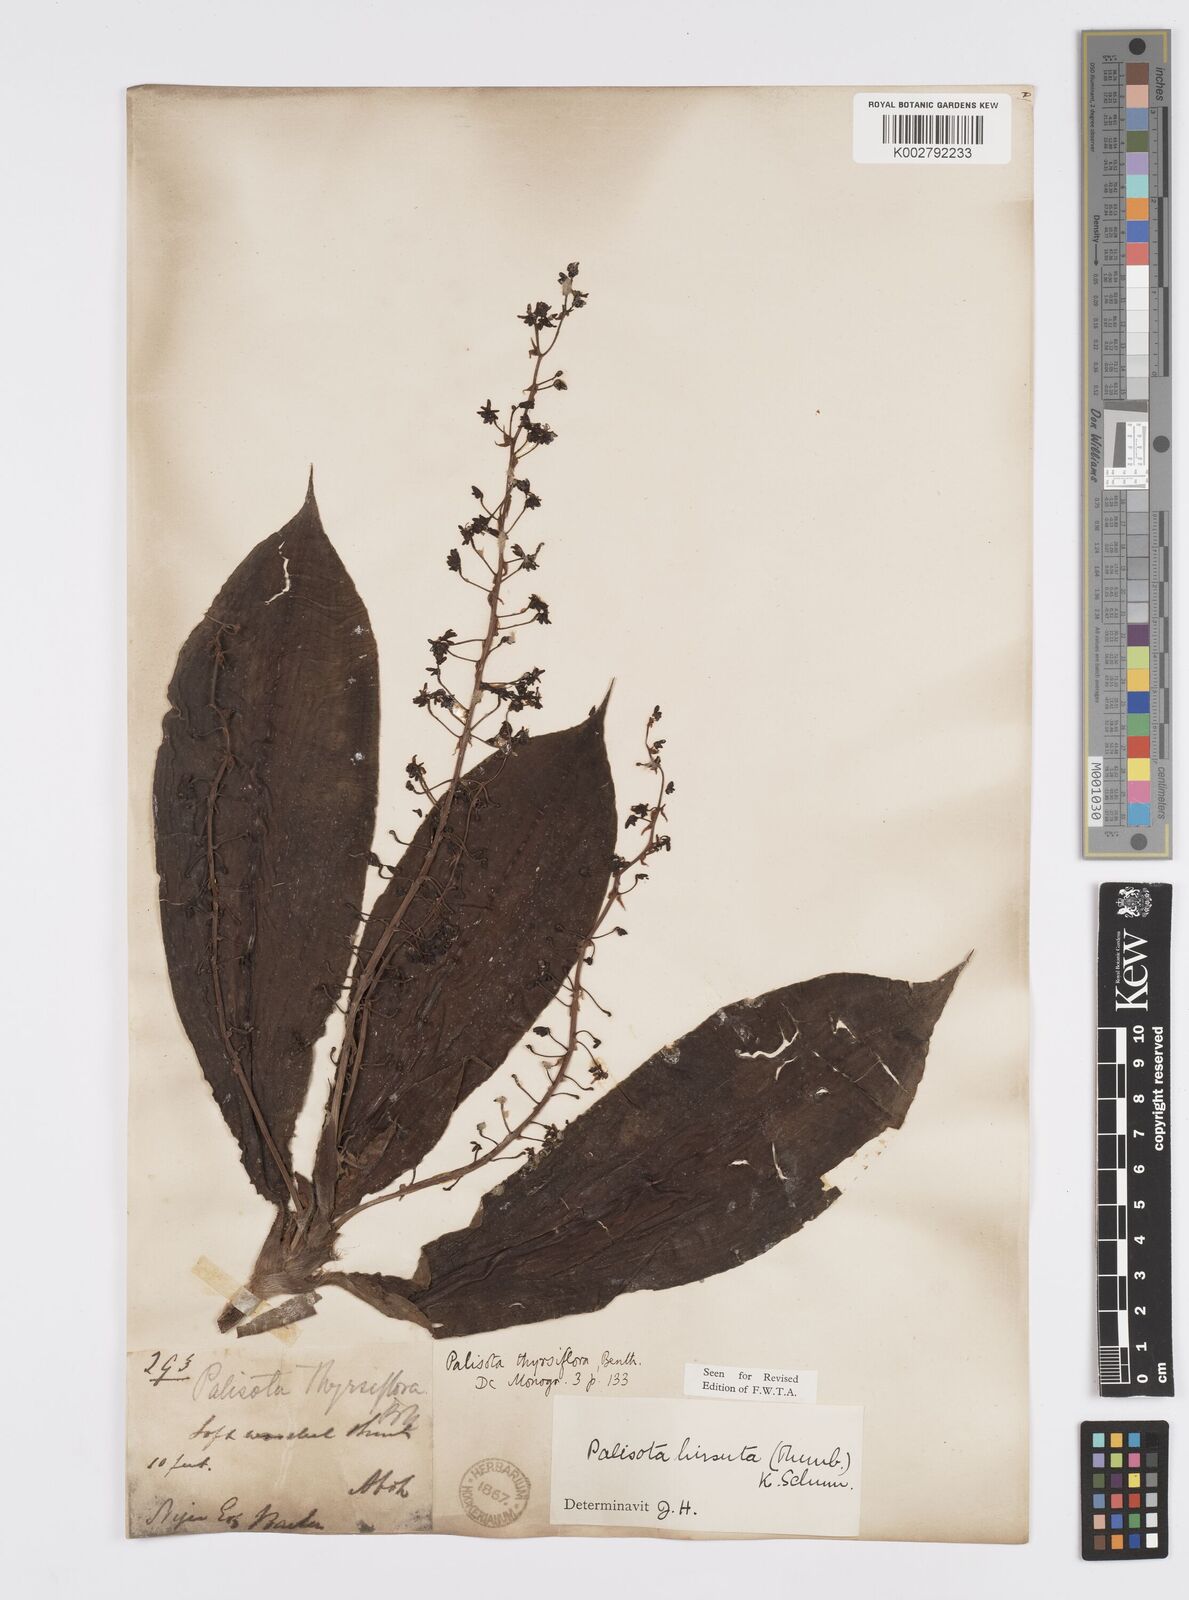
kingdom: Plantae
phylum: Tracheophyta
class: Liliopsida
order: Commelinales
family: Commelinaceae
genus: Palisota
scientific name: Palisota hirsuta
